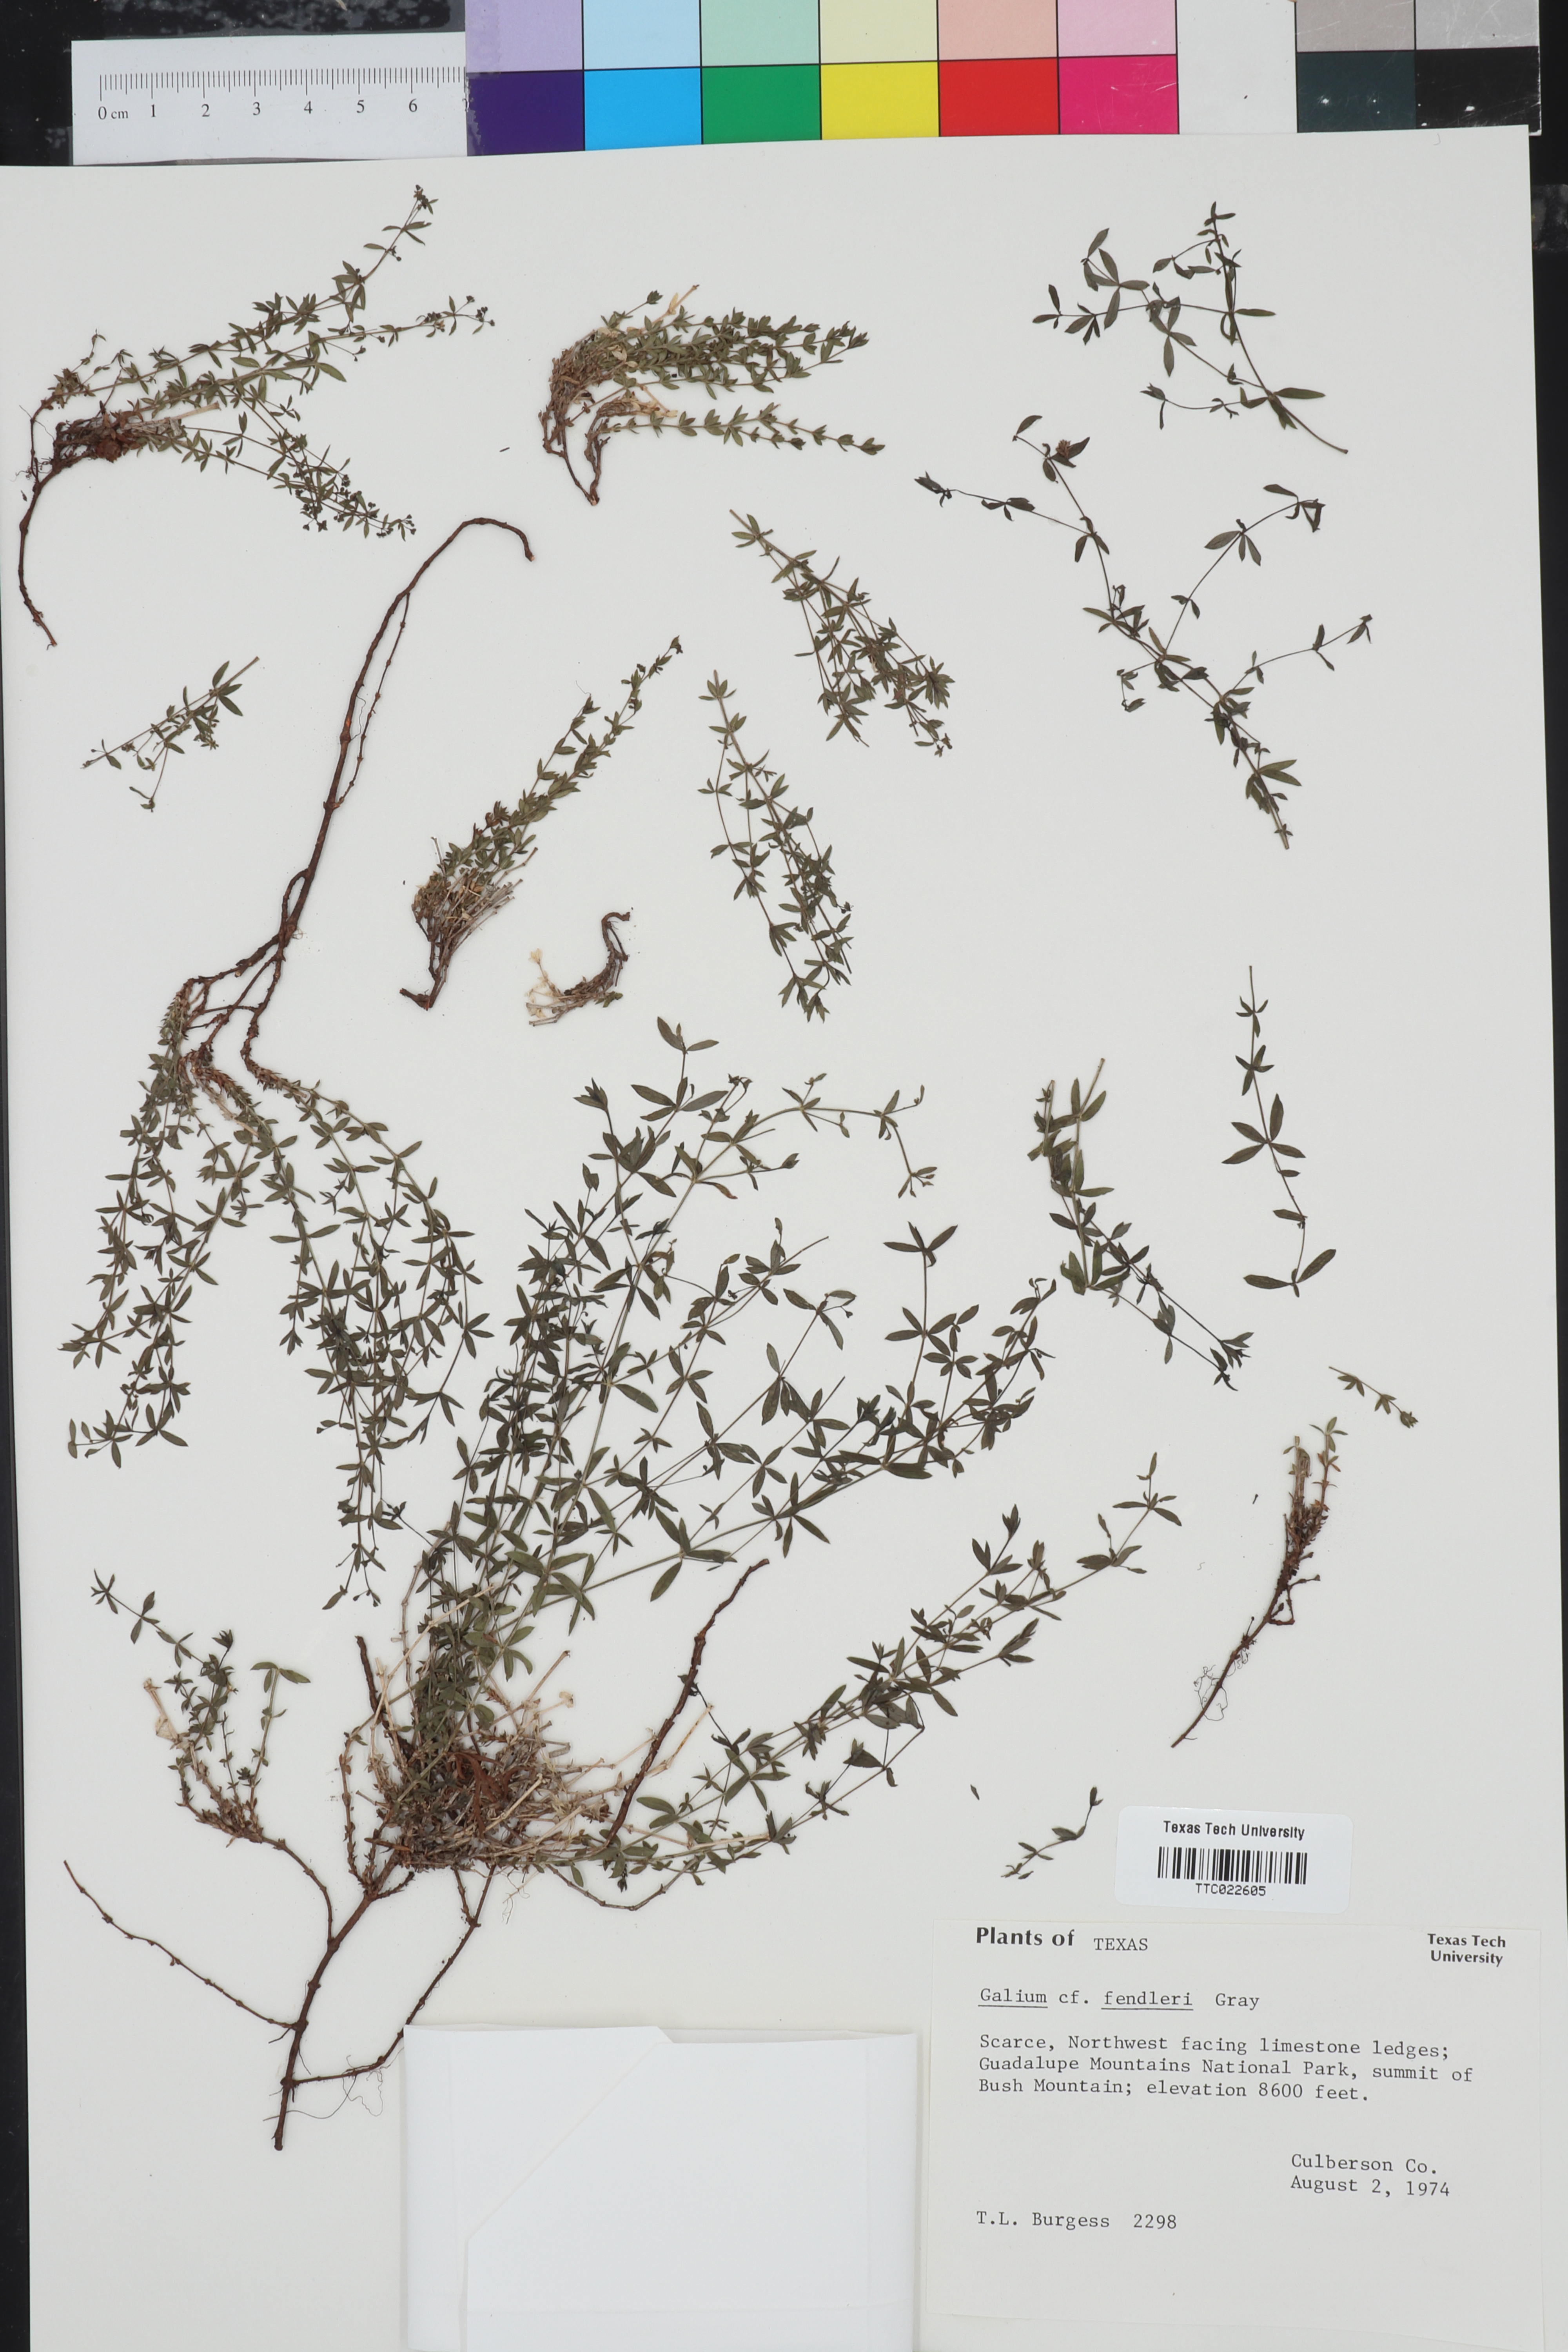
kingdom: Plantae
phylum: Tracheophyta
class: Magnoliopsida
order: Gentianales
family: Rubiaceae
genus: Galium
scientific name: Galium fendleri
